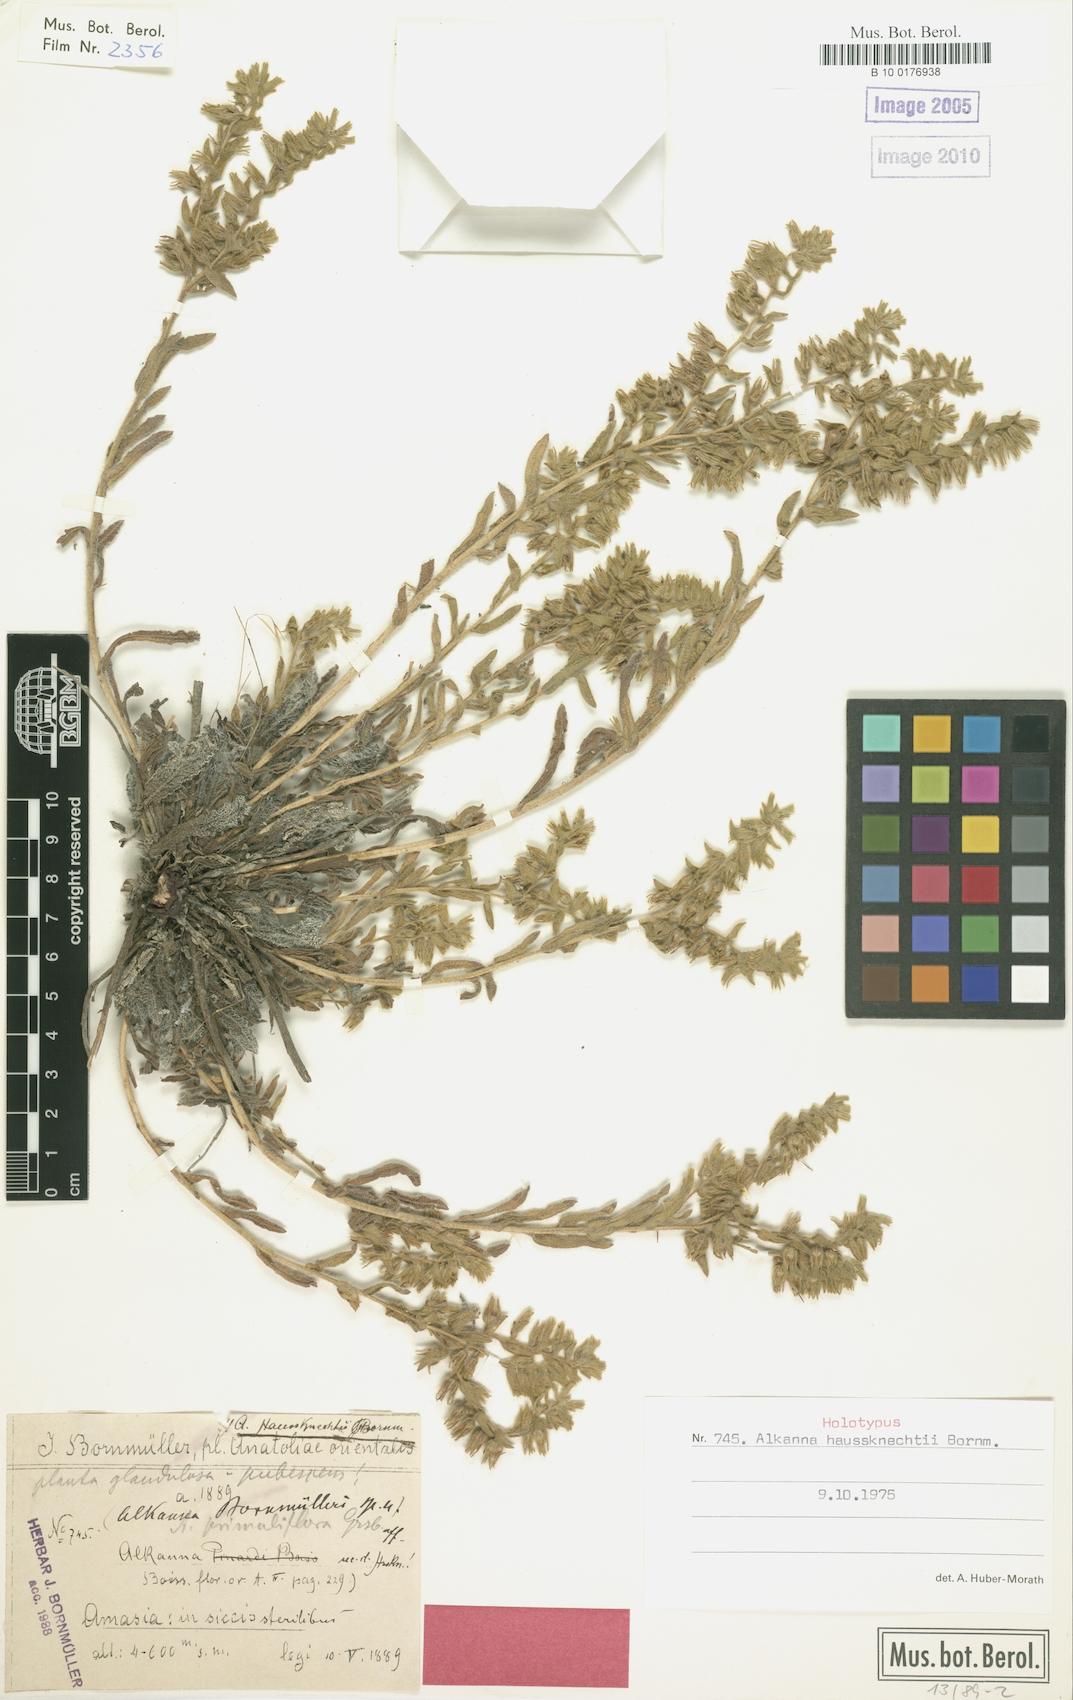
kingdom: Plantae
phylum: Tracheophyta
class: Magnoliopsida
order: Boraginales
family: Boraginaceae
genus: Alkanna
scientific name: Alkanna haussknechtii
